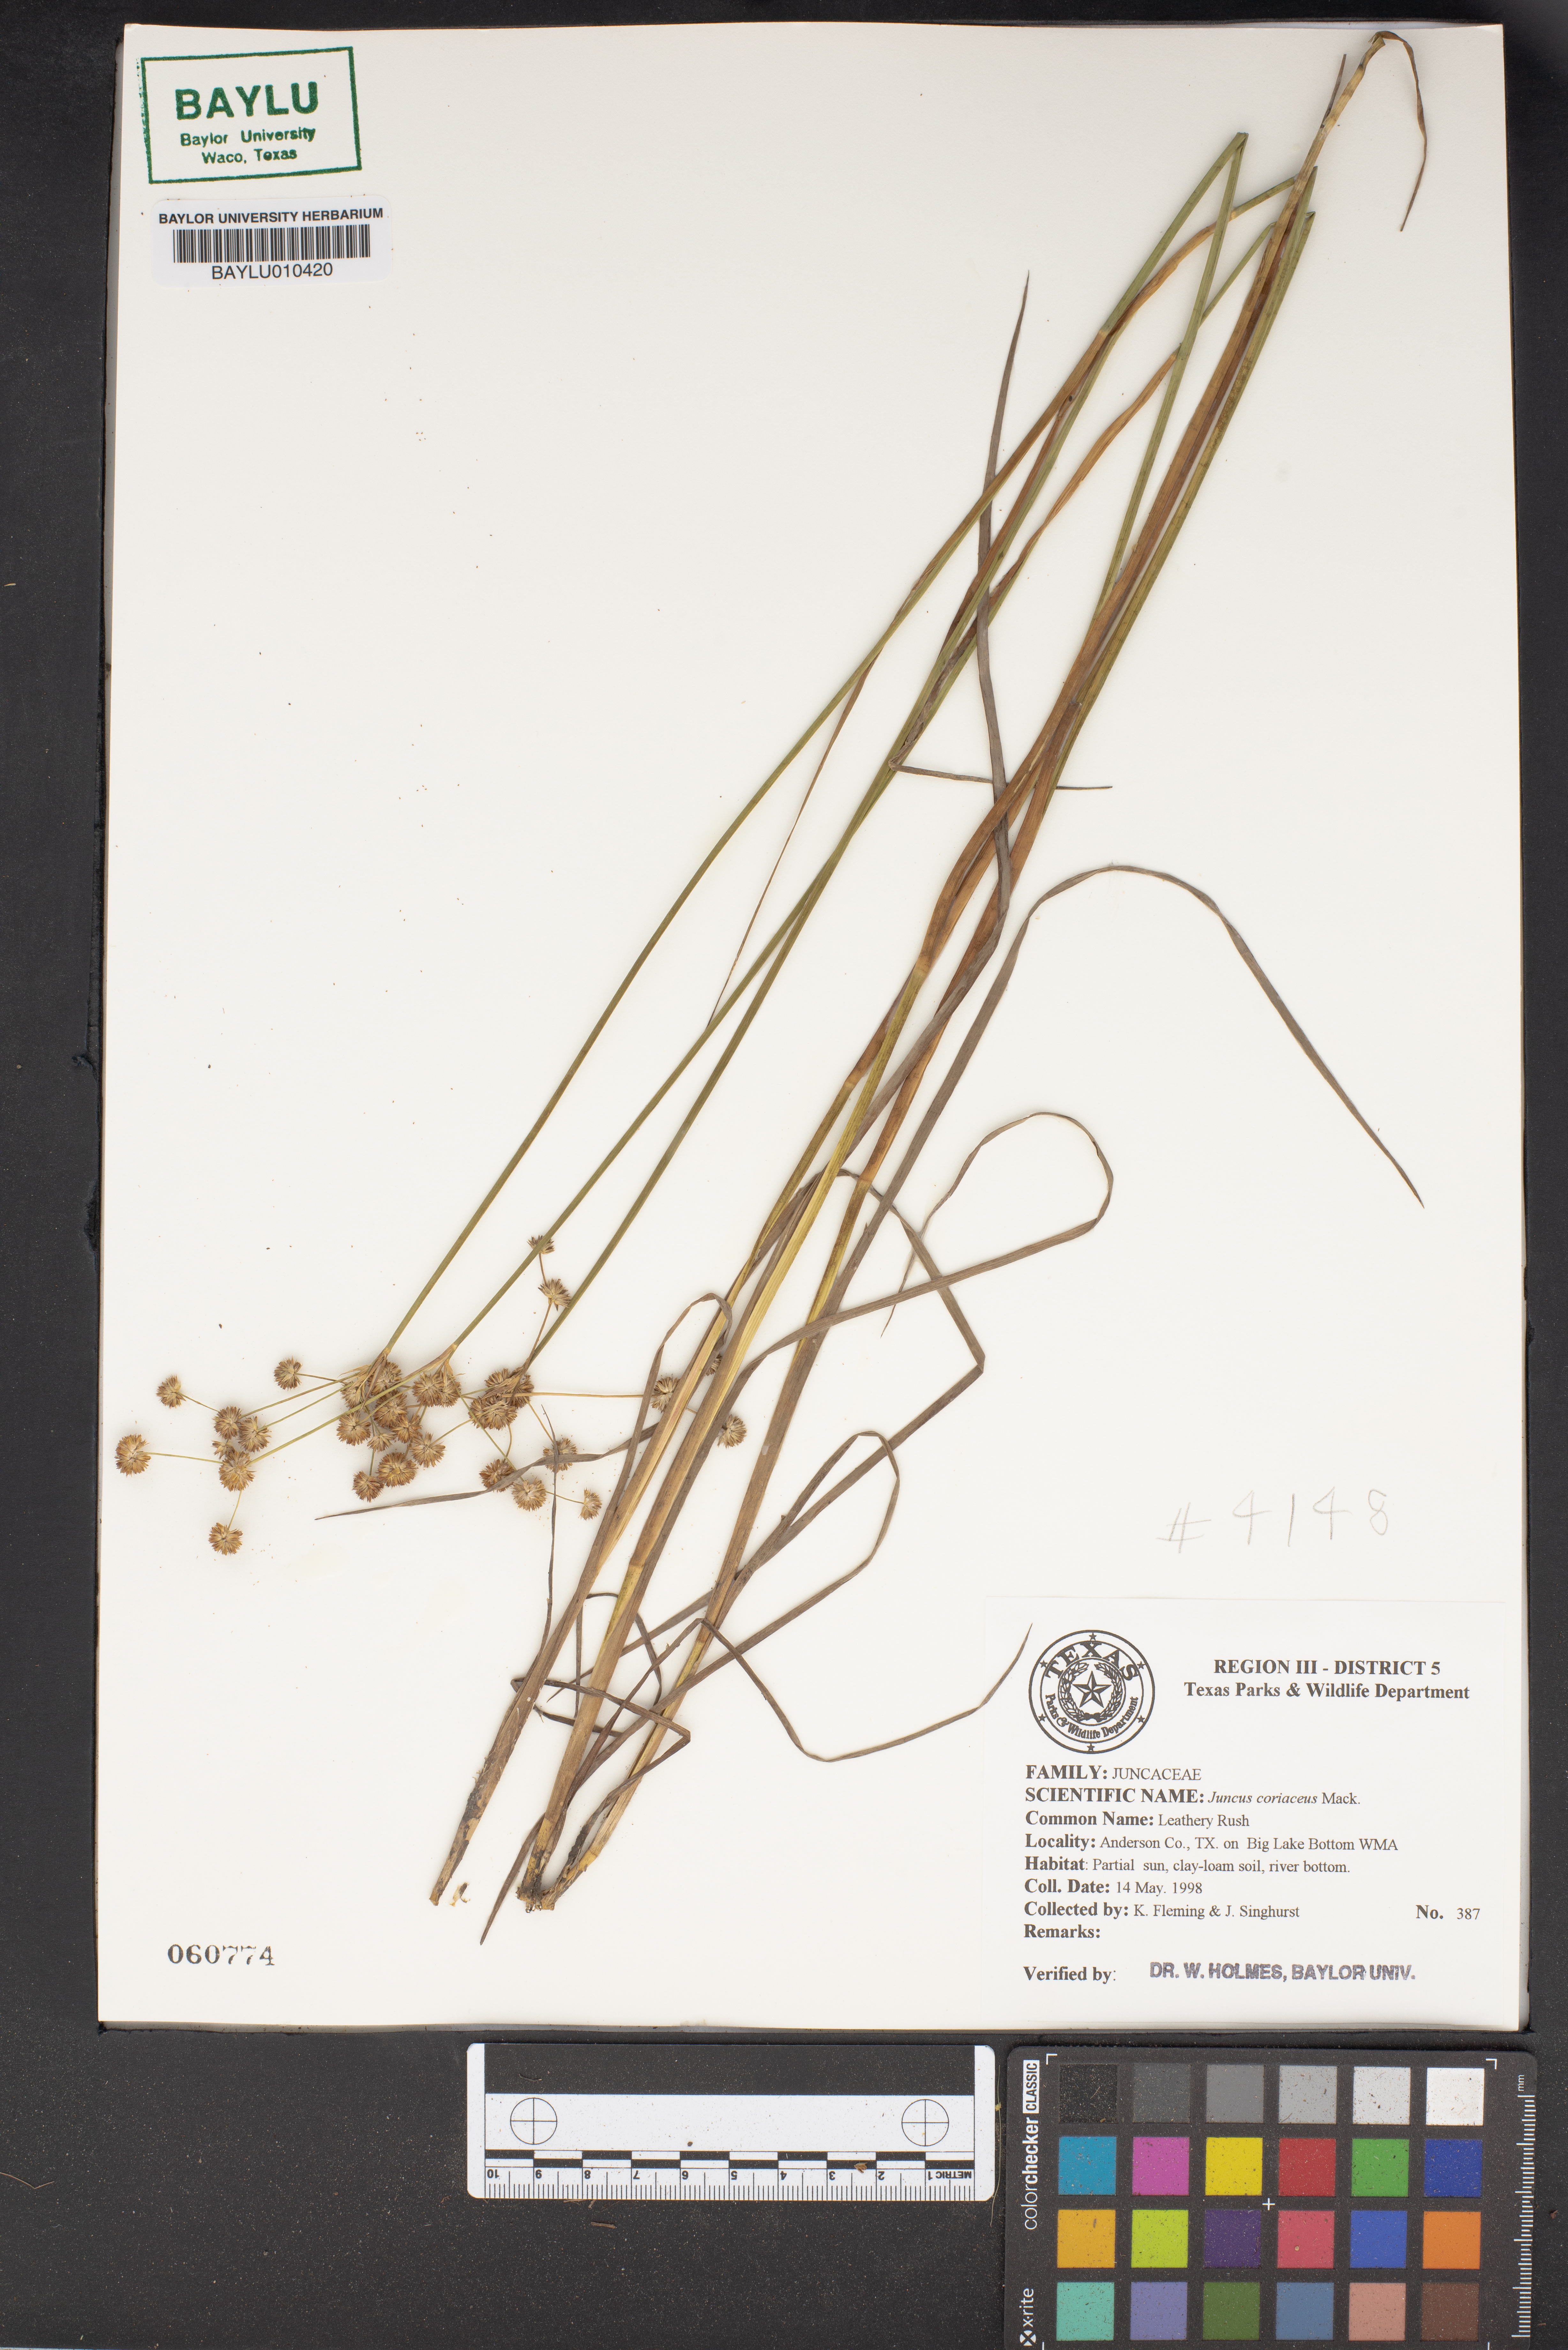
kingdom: Plantae
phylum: Tracheophyta
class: Liliopsida
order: Poales
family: Juncaceae
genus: Juncus
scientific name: Juncus coriaceus
